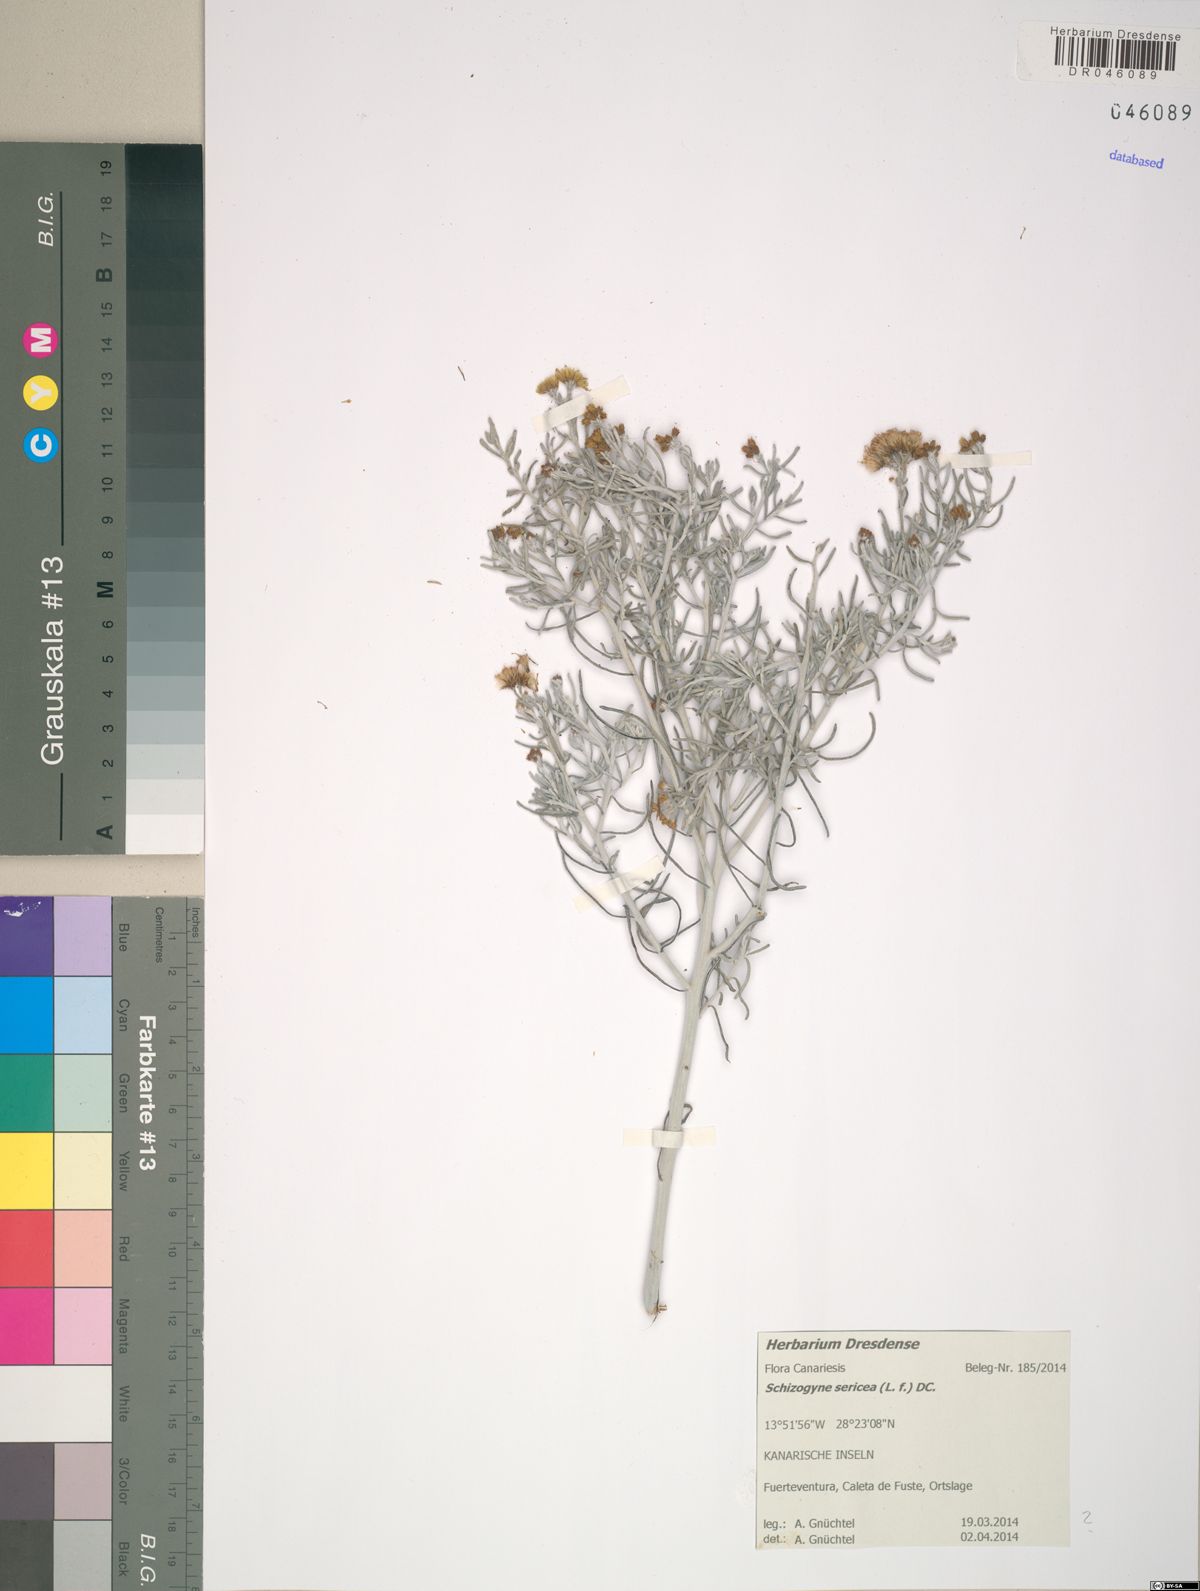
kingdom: Plantae
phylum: Tracheophyta
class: Magnoliopsida
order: Asterales
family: Asteraceae
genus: Schizogyne
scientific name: Schizogyne sericea
